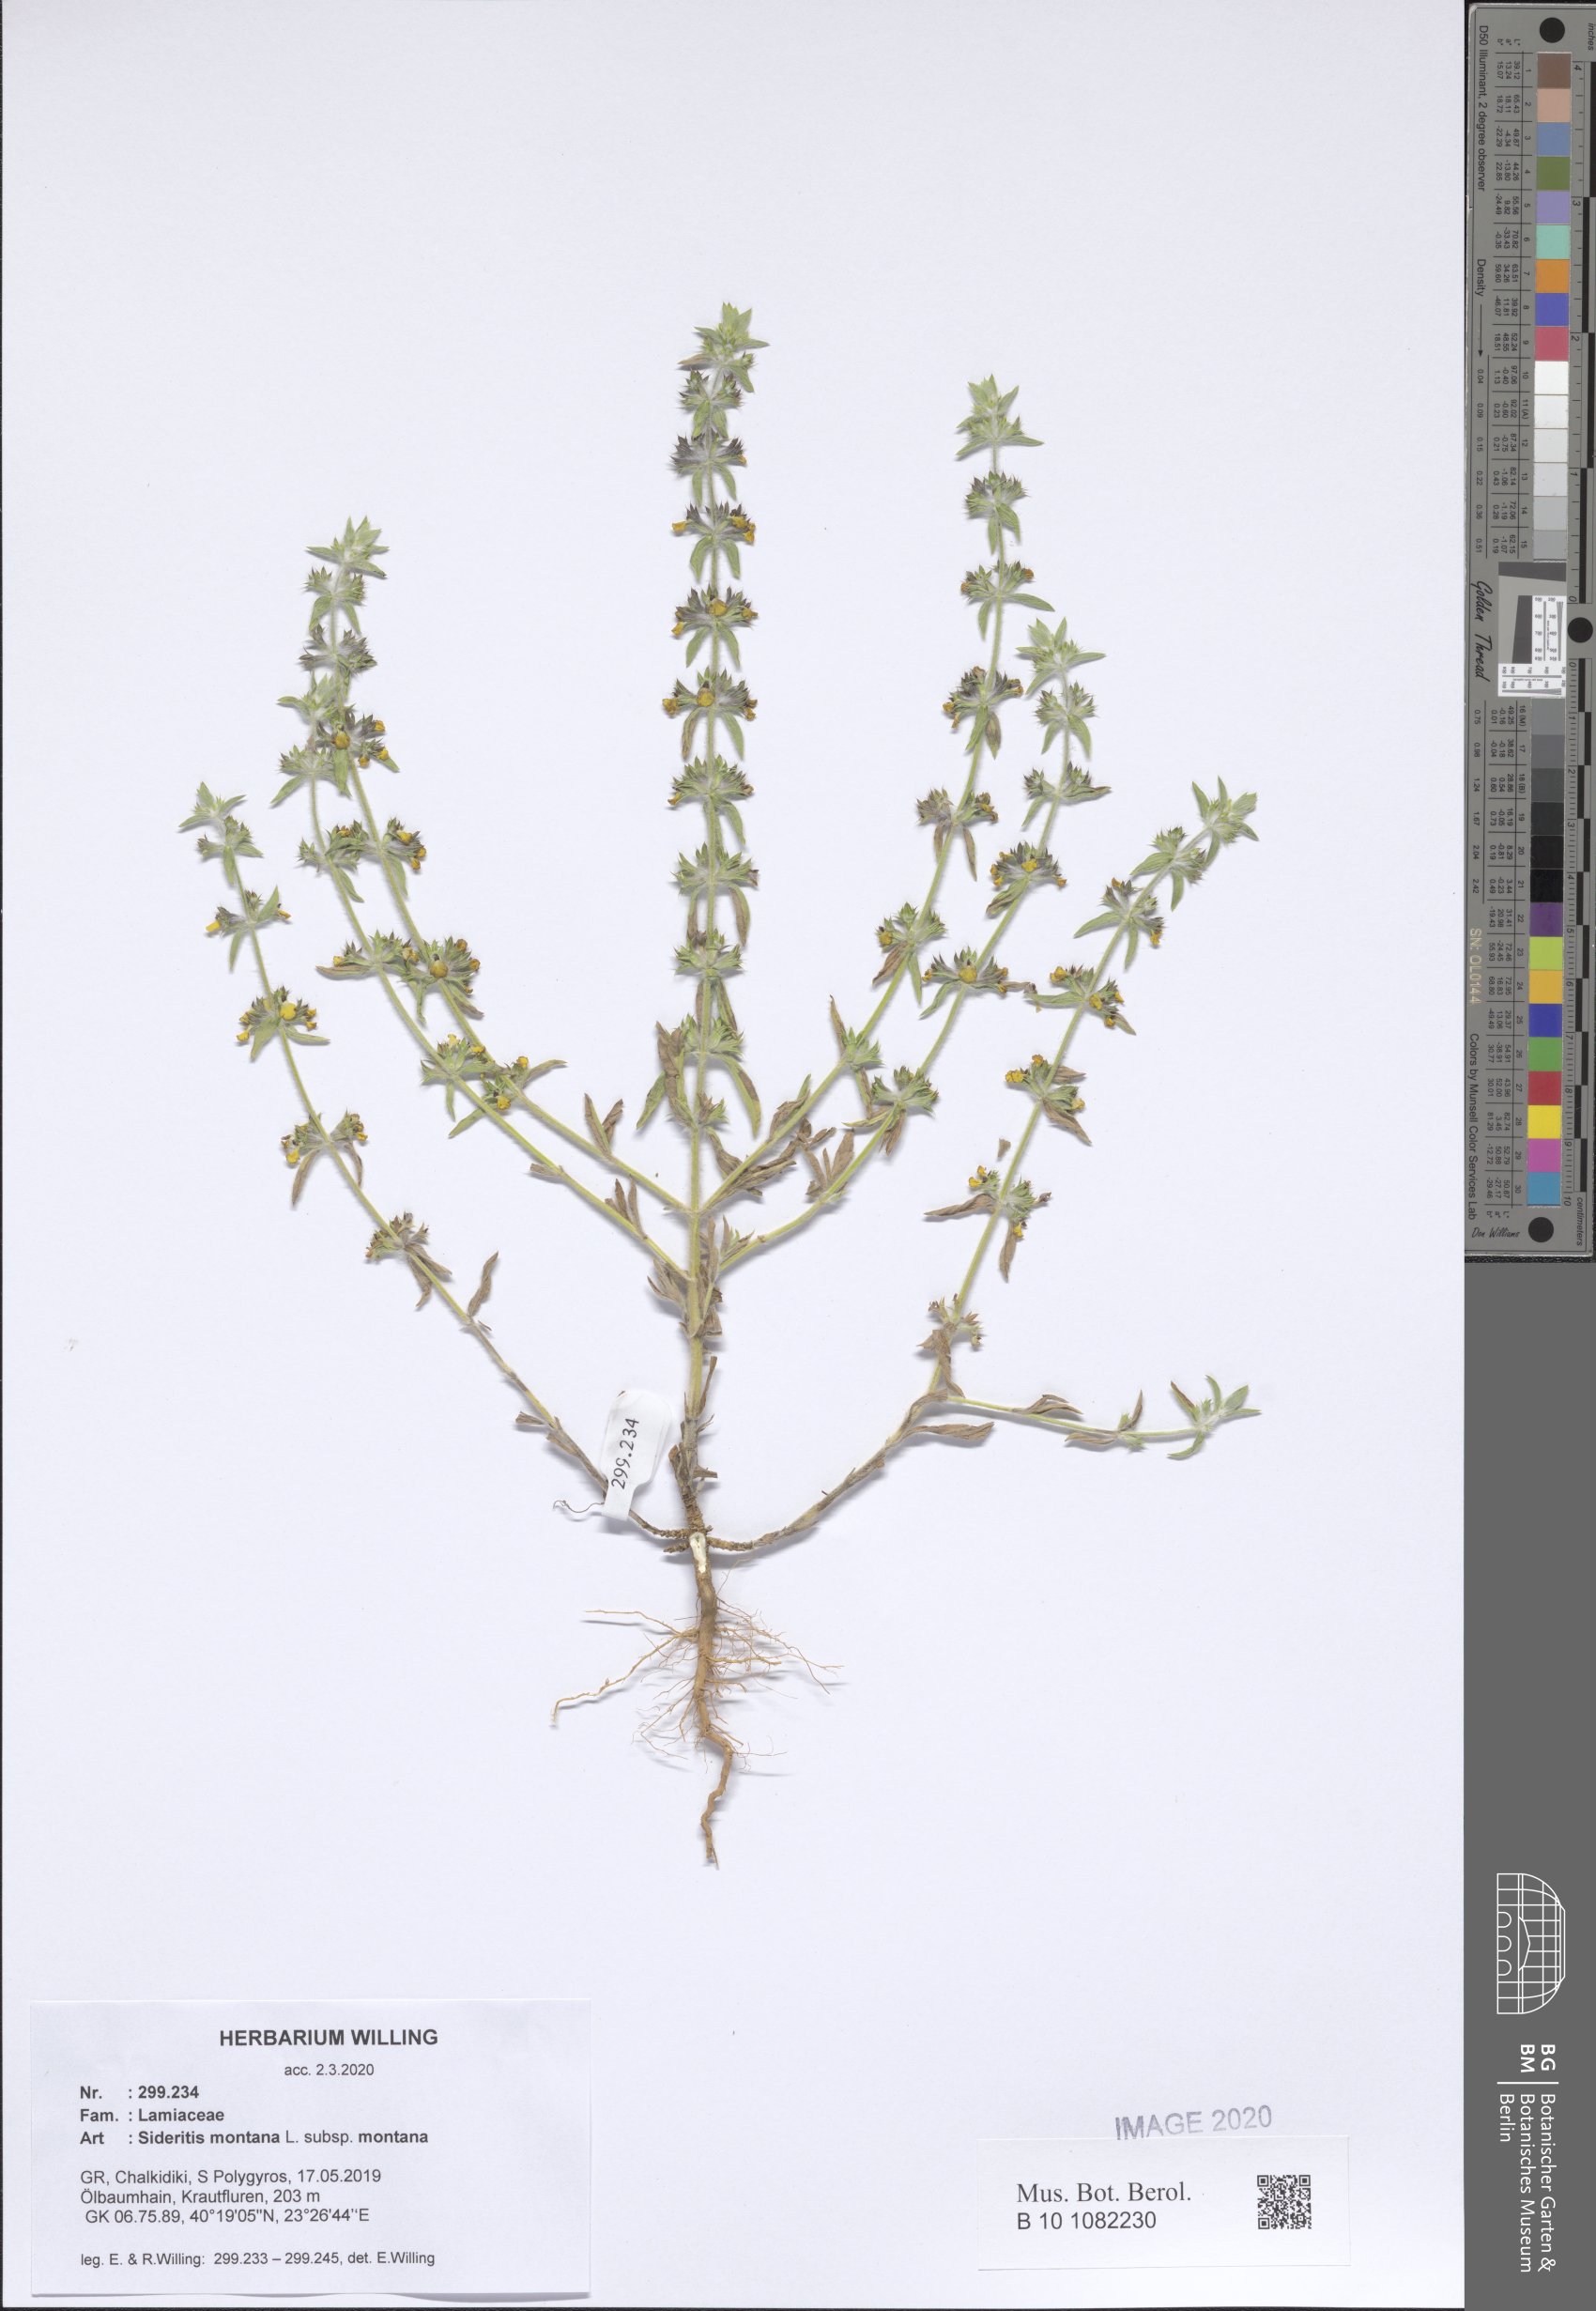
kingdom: Plantae
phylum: Tracheophyta
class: Magnoliopsida
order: Lamiales
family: Lamiaceae
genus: Sideritis
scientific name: Sideritis montana
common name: Mountain ironwort
